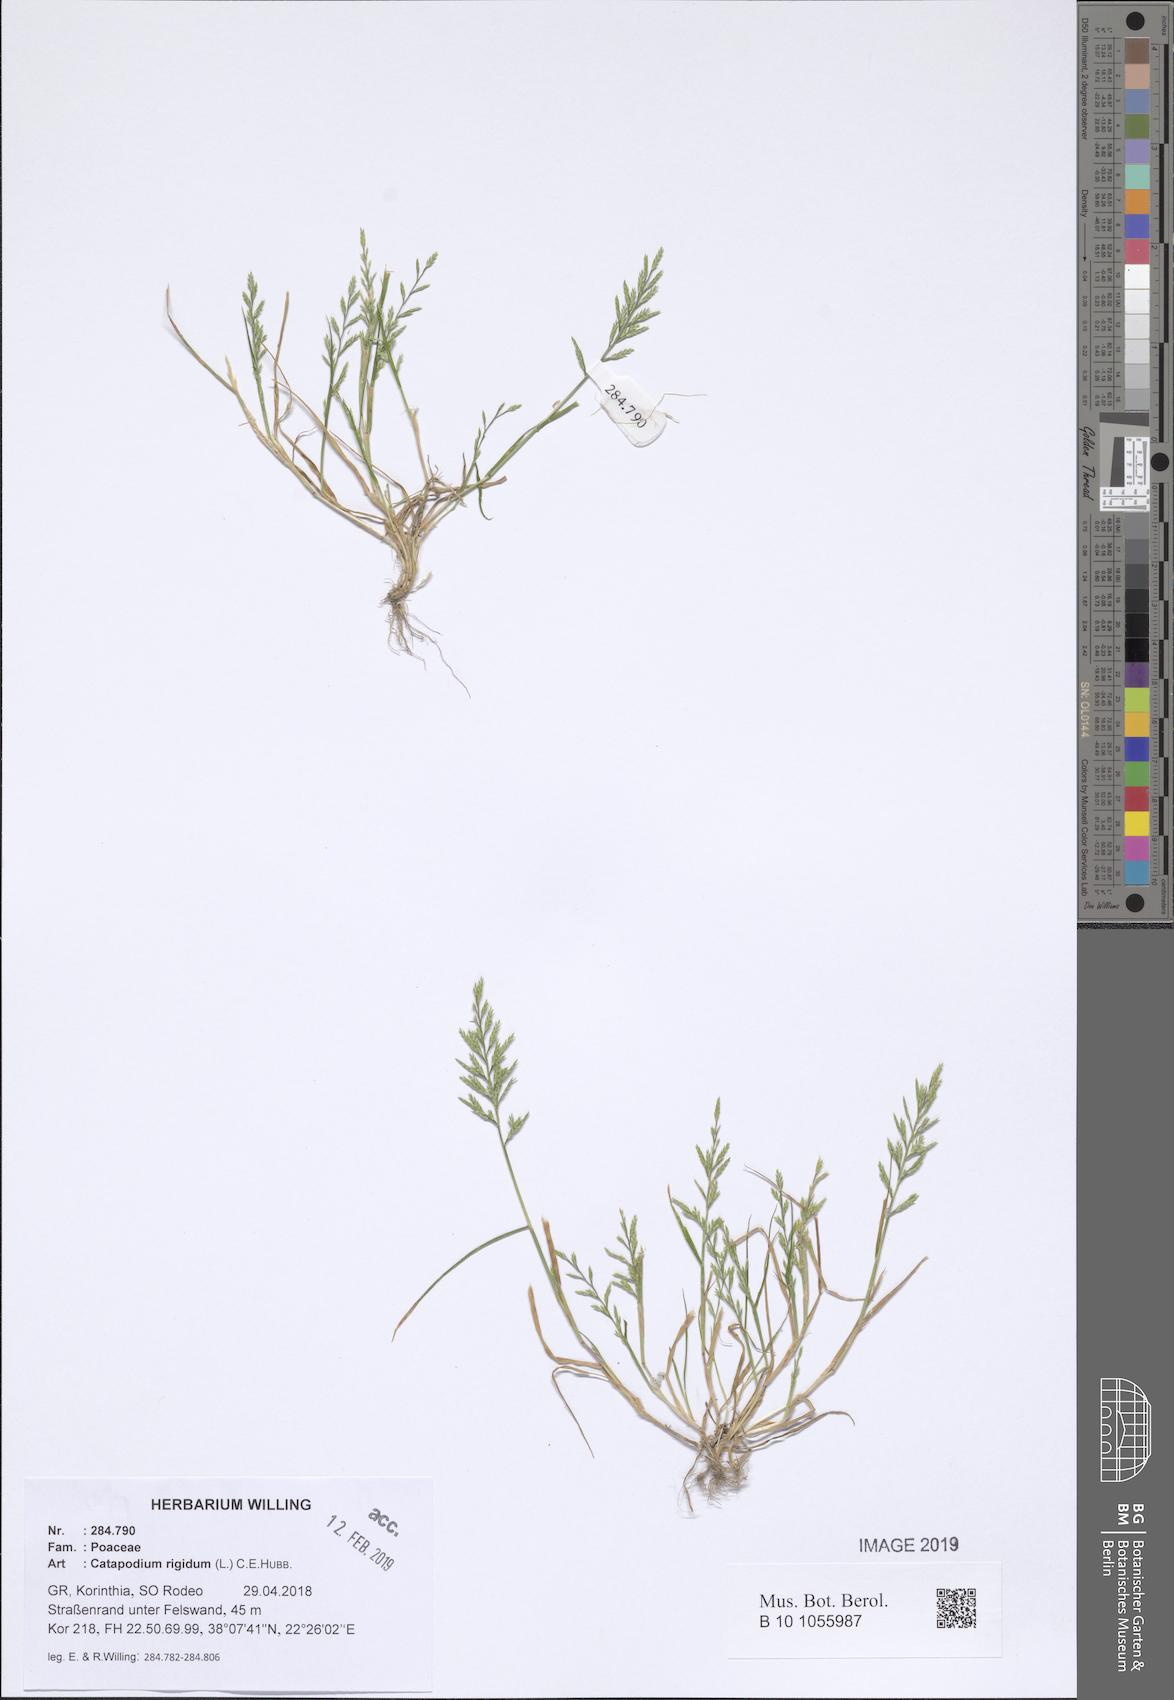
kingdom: Plantae
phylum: Tracheophyta
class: Liliopsida
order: Poales
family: Poaceae
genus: Catapodium
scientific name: Catapodium rigidum
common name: Fern-grass
